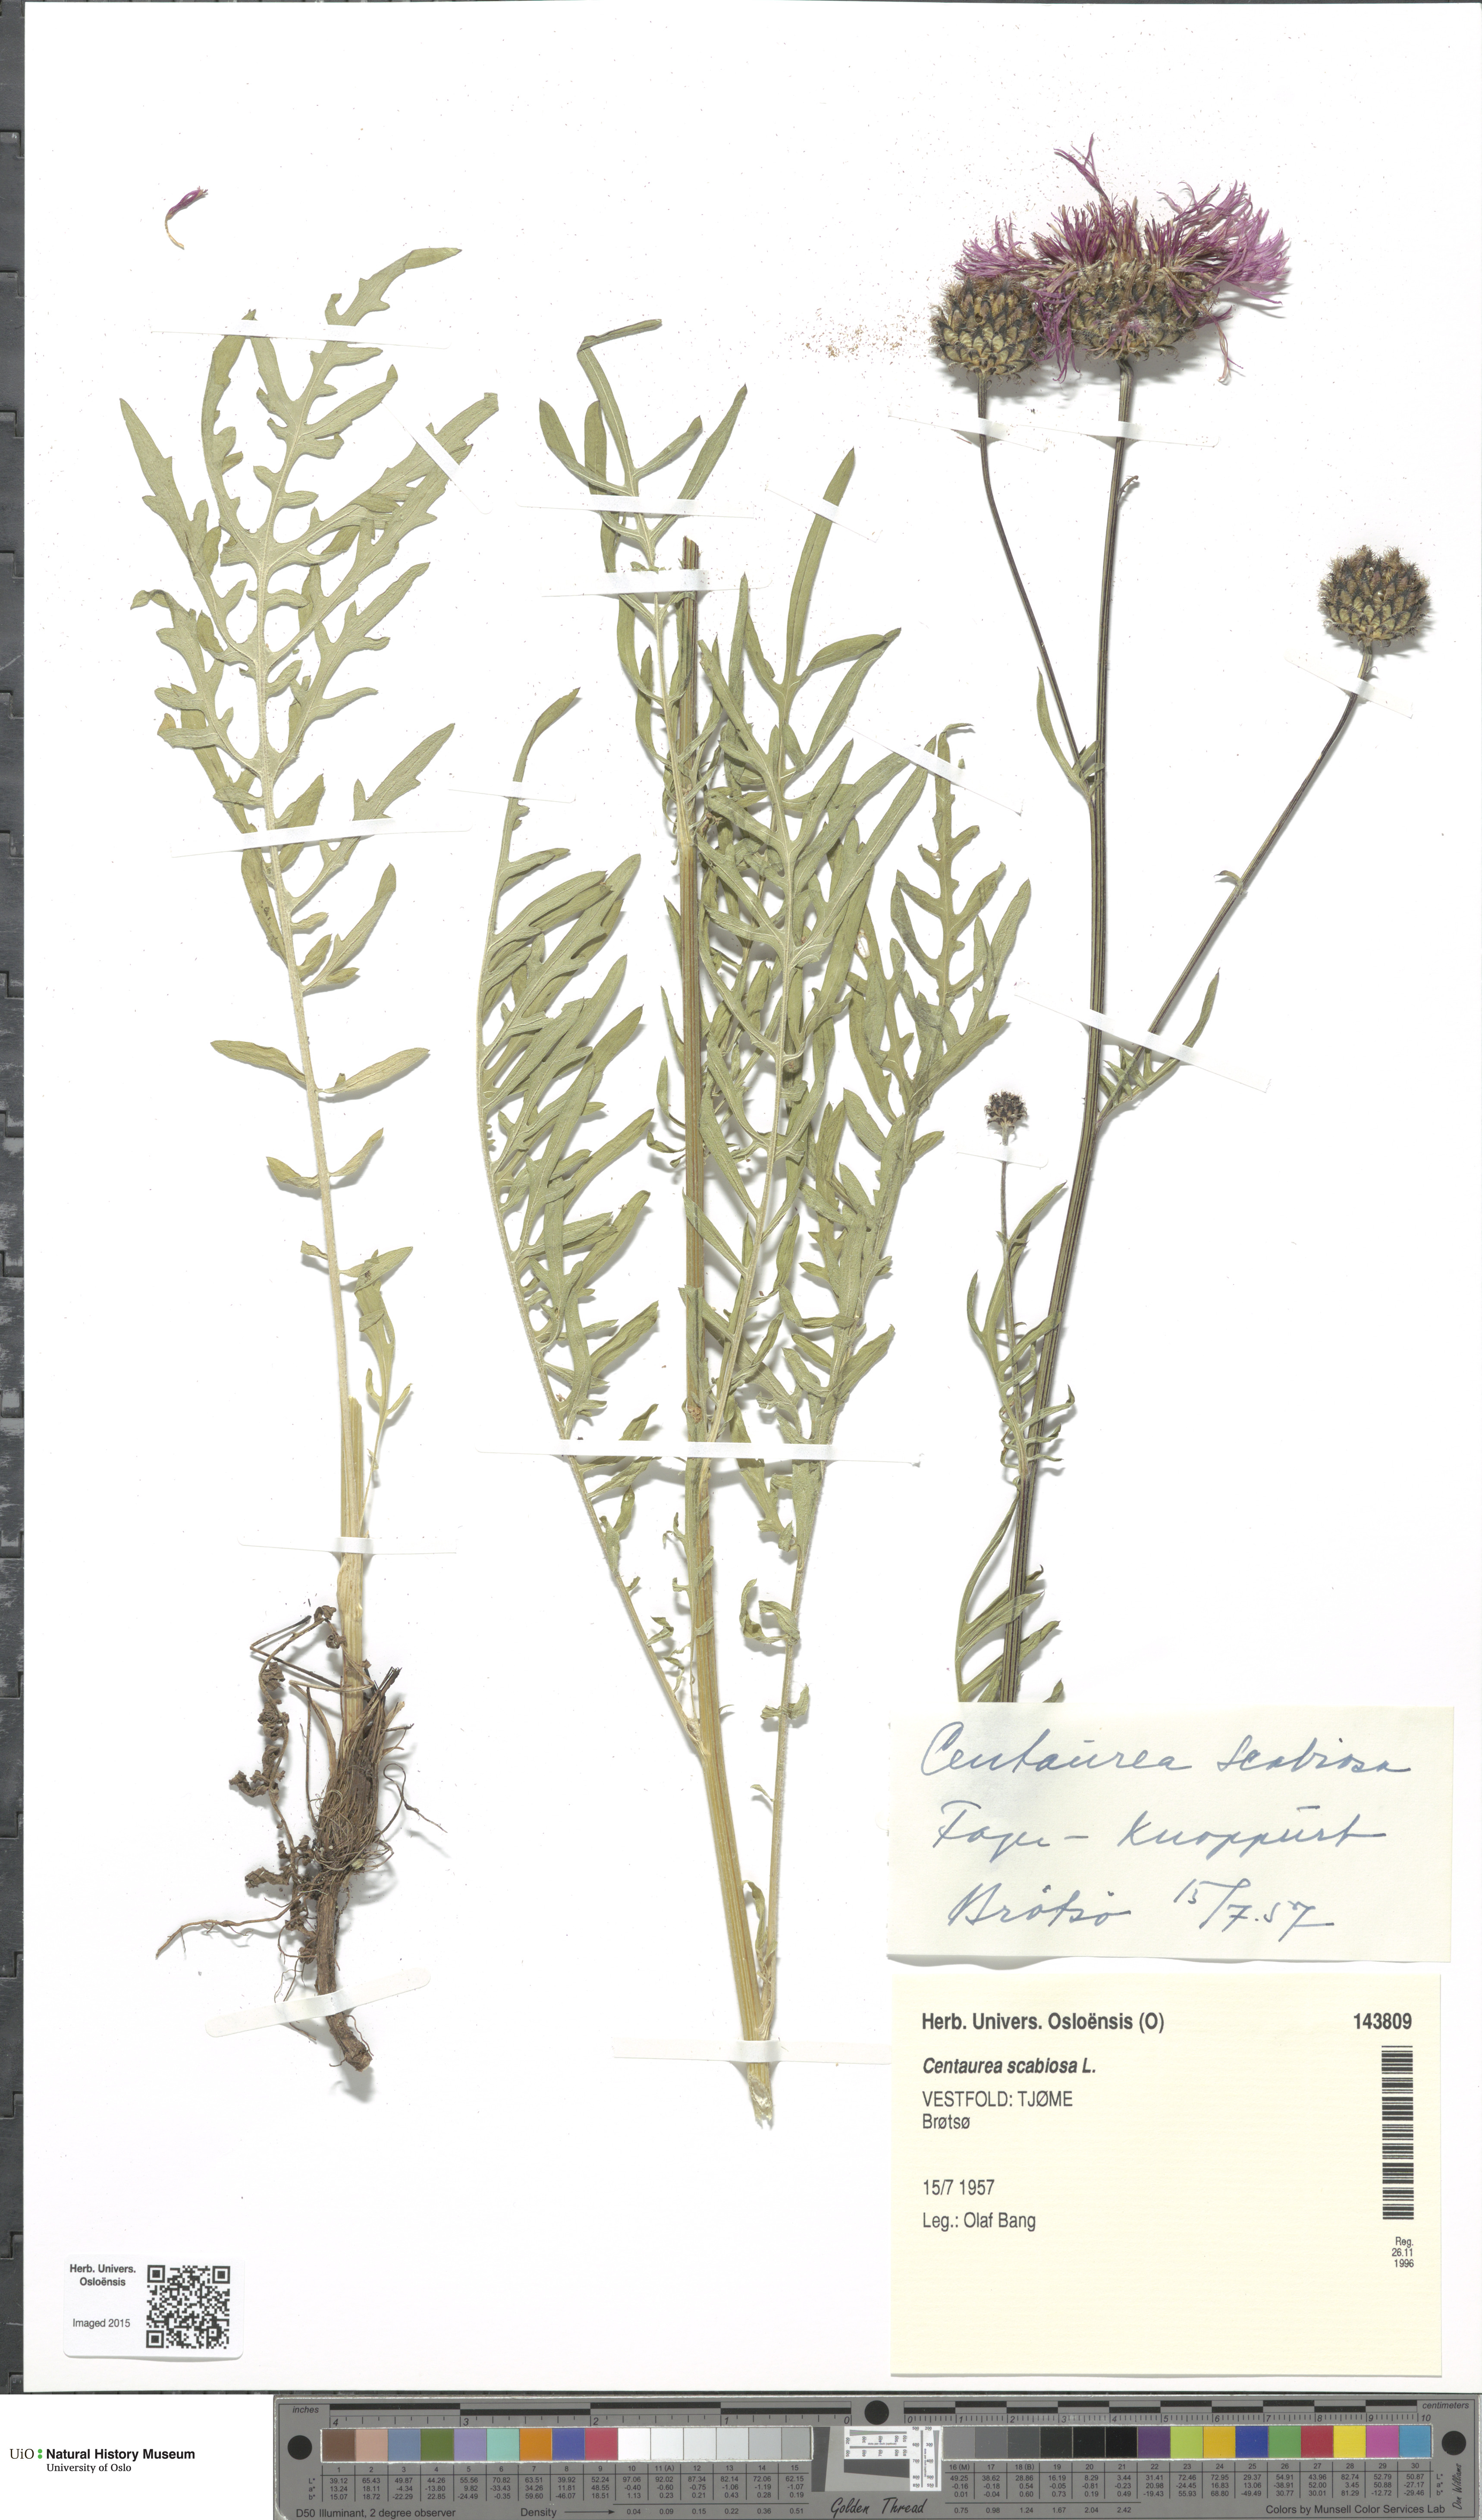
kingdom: Plantae
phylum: Tracheophyta
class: Magnoliopsida
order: Asterales
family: Asteraceae
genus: Centaurea
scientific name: Centaurea scabiosa
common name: Greater knapweed
